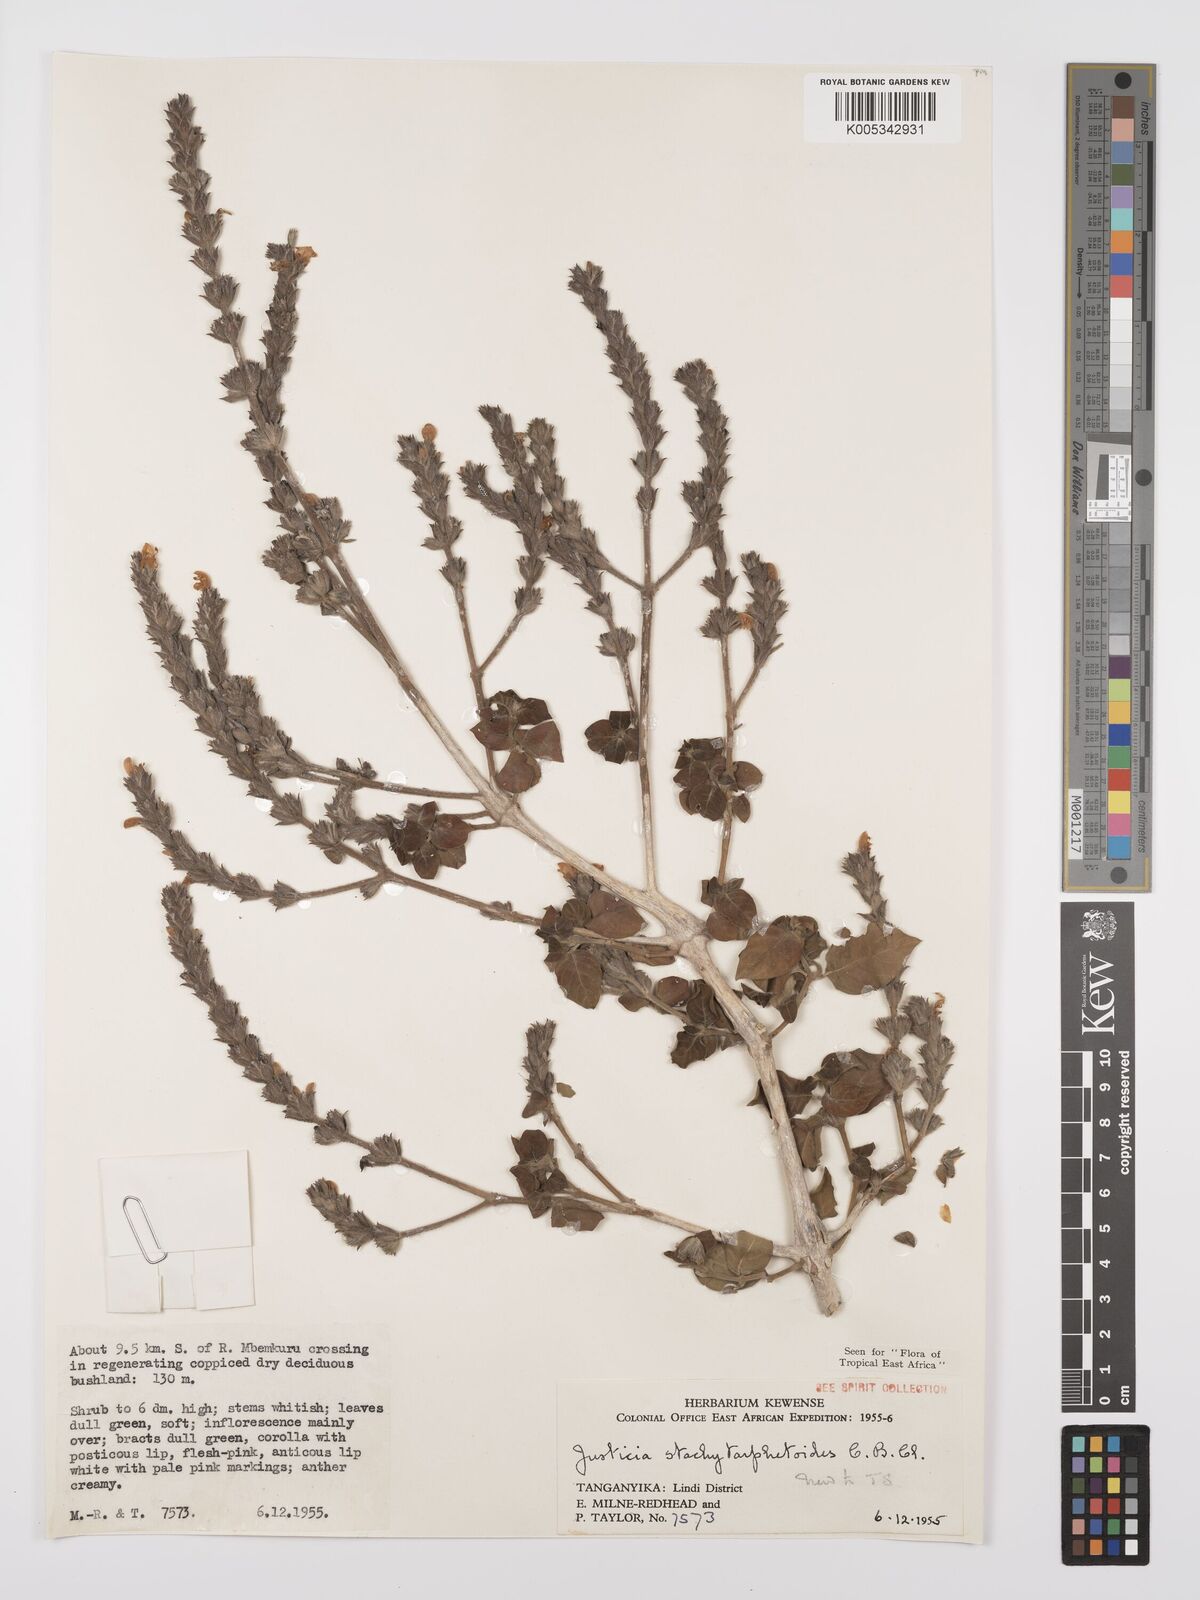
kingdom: Plantae
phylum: Tracheophyta
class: Magnoliopsida
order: Lamiales
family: Acanthaceae
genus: Justicia
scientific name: Justicia stachytarphetoides
